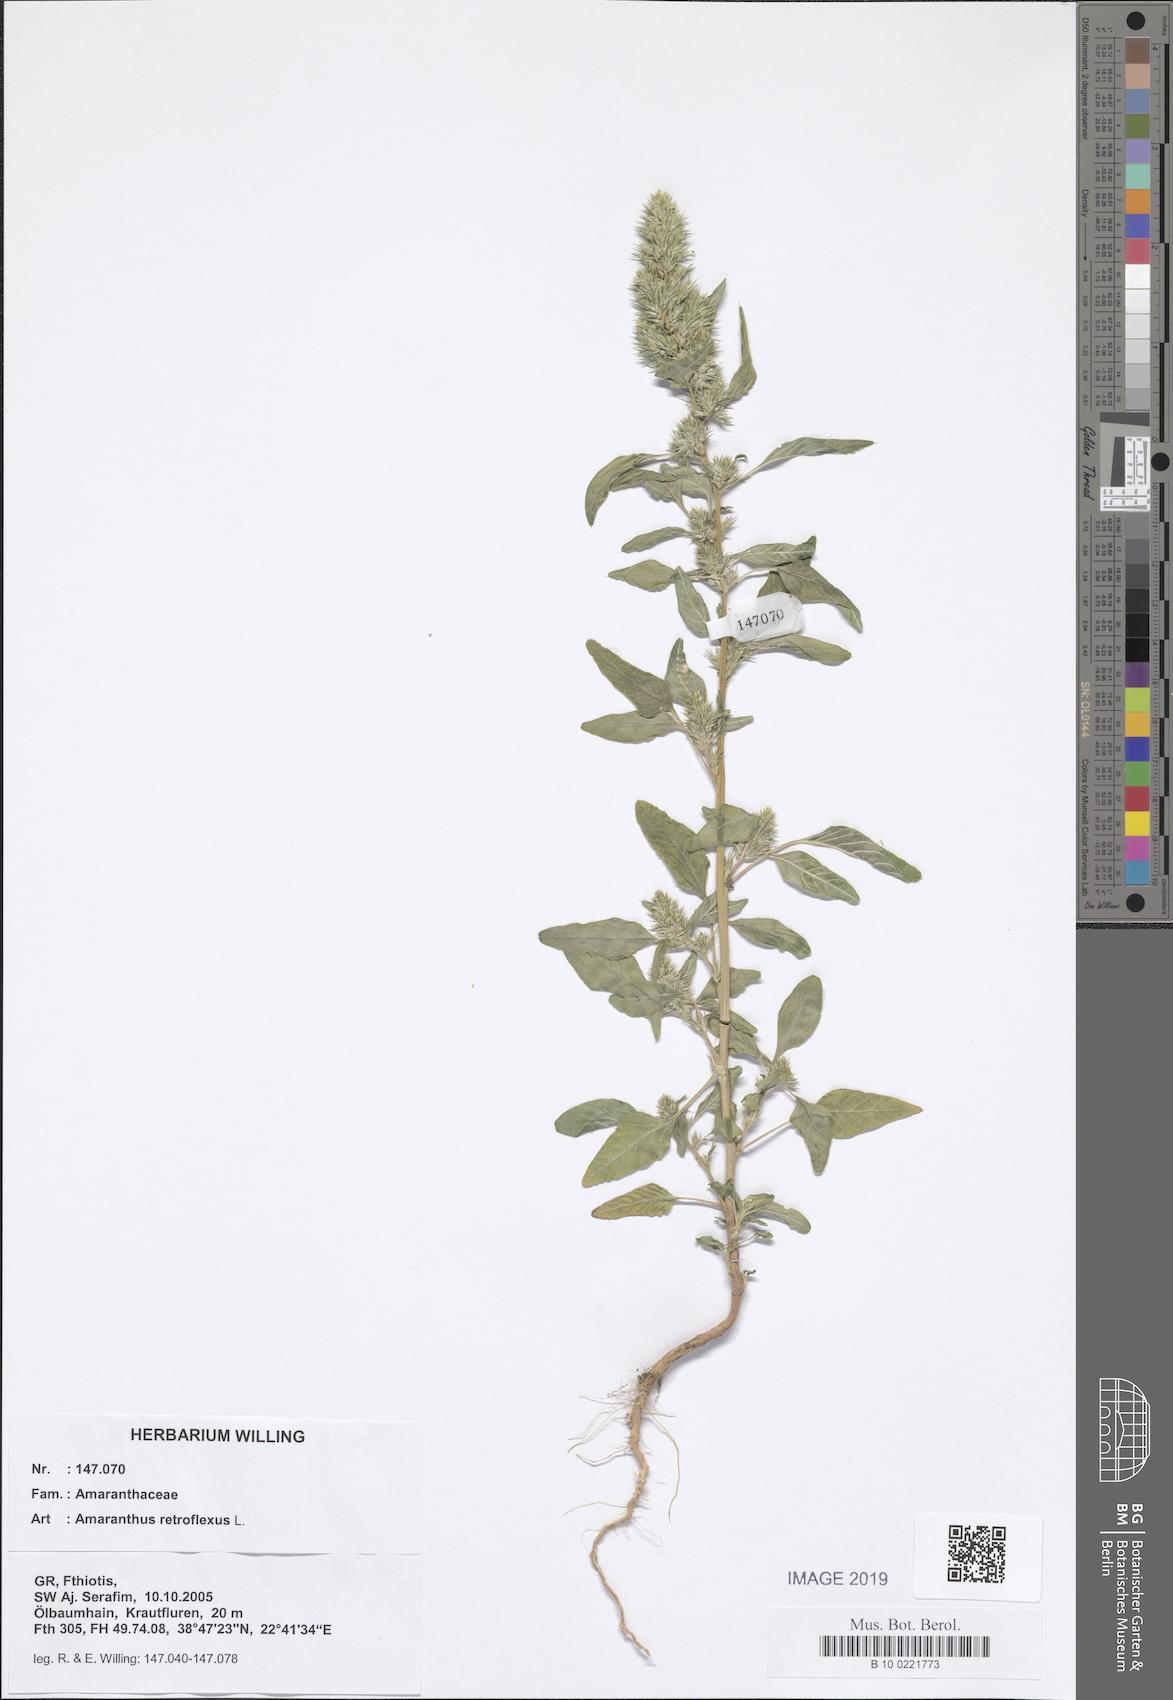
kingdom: Plantae
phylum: Tracheophyta
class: Magnoliopsida
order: Caryophyllales
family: Amaranthaceae
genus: Amaranthus
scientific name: Amaranthus retroflexus
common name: Redroot amaranth
